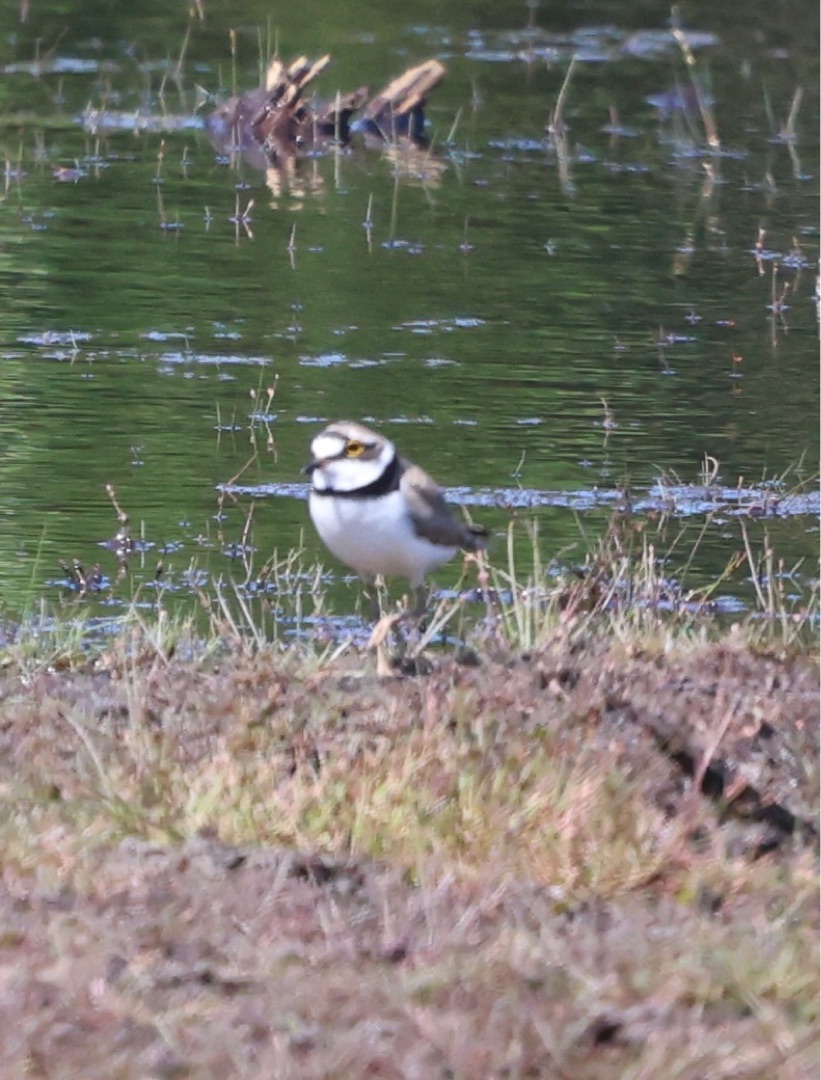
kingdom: Animalia
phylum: Chordata
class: Aves
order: Charadriiformes
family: Charadriidae
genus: Charadrius
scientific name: Charadrius dubius
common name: Lille præstekrave
